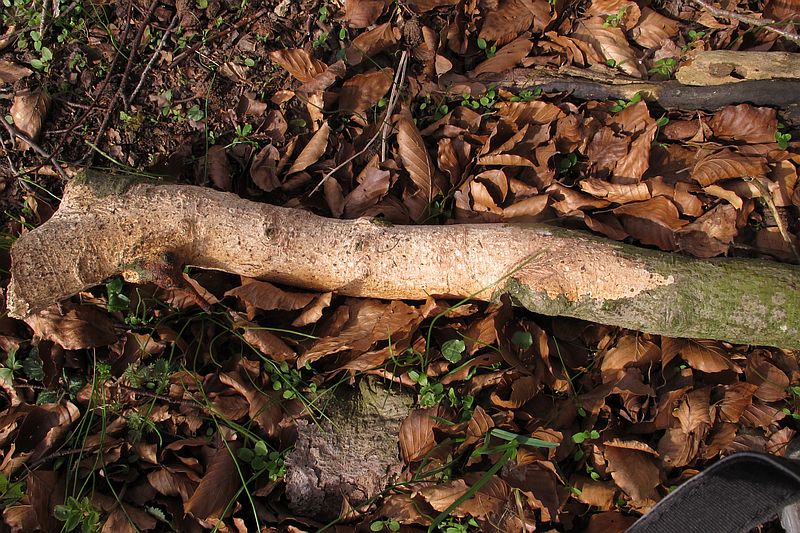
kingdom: Fungi
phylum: Basidiomycota
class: Agaricomycetes
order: Agaricales
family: Radulomycetaceae
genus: Radulomyces
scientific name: Radulomyces confluens
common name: glat naftalinskind
